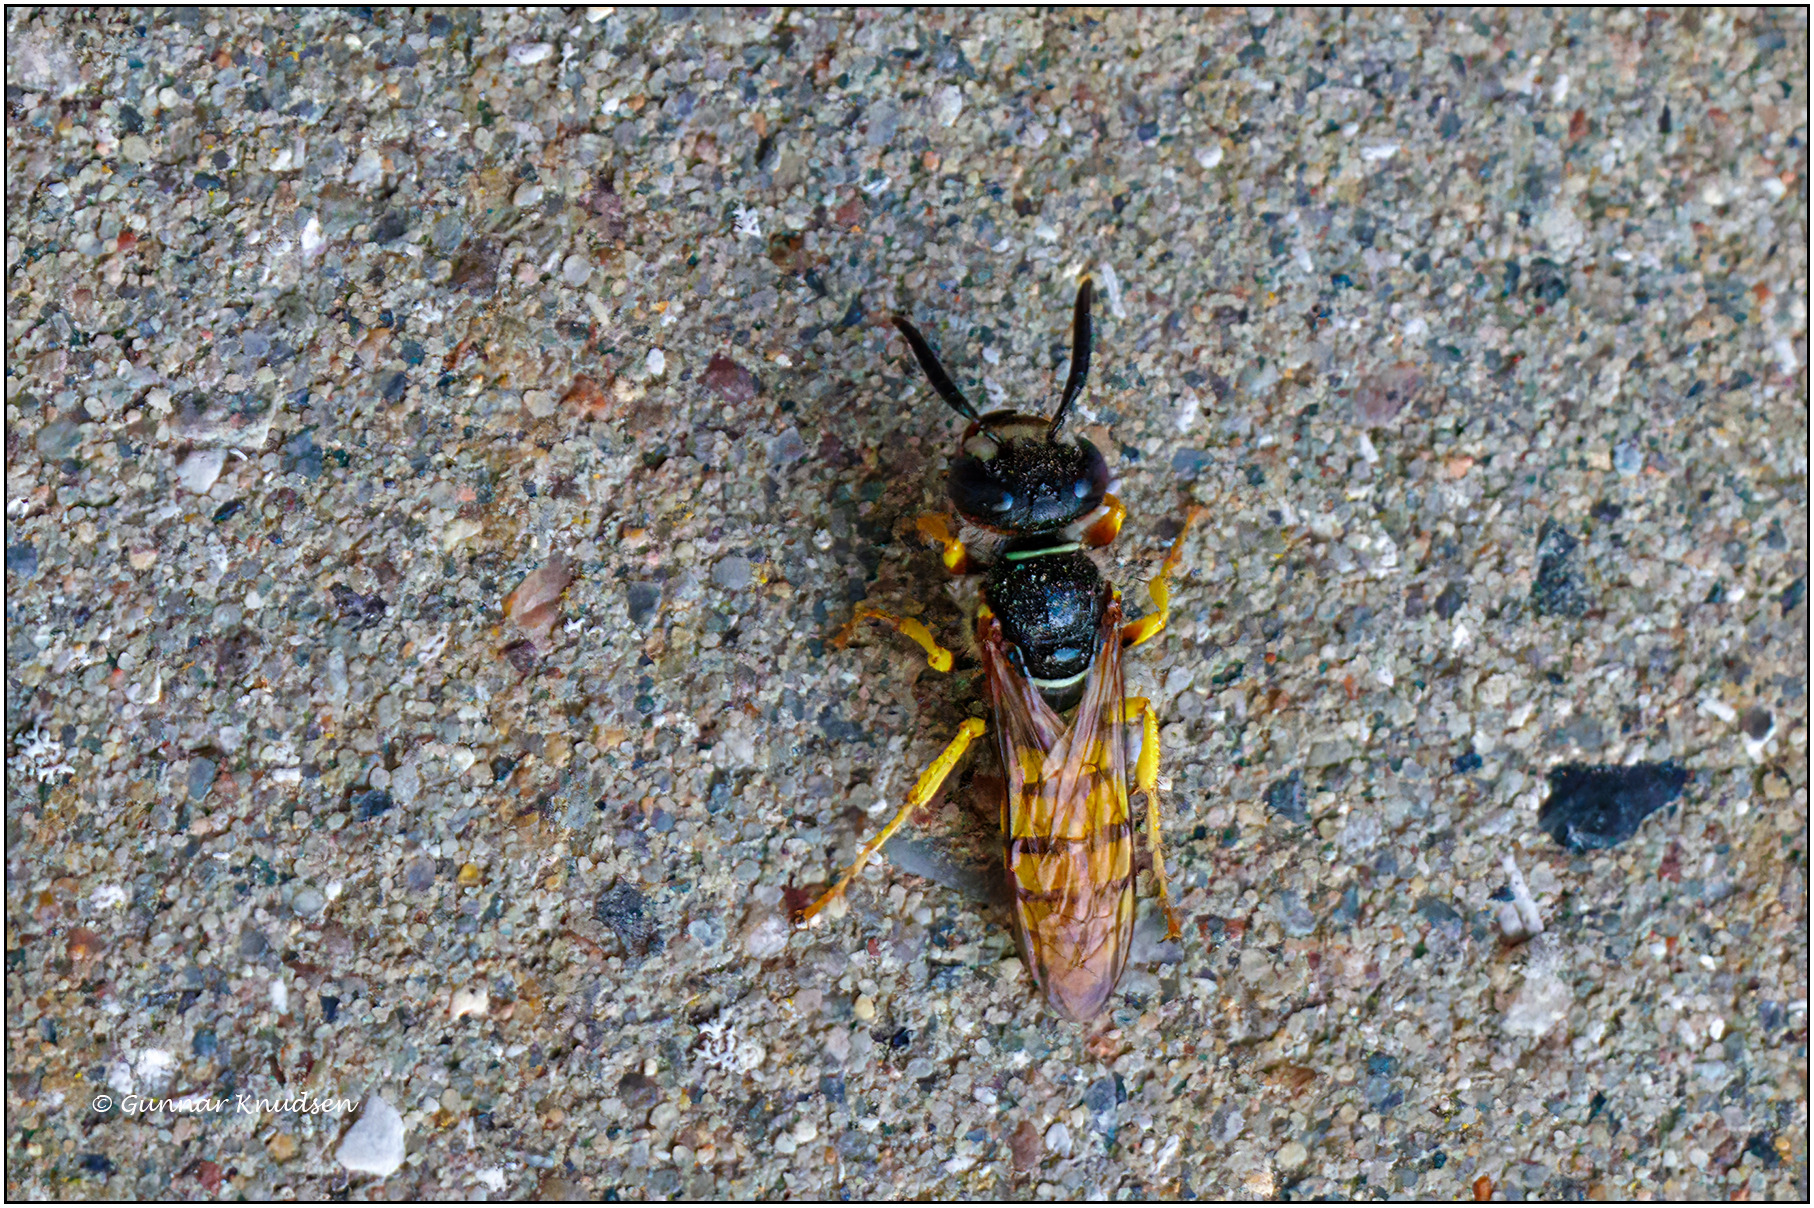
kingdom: Animalia
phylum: Arthropoda
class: Insecta
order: Hymenoptera
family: Crabronidae
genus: Philanthus
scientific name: Philanthus triangulum
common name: Biulv
